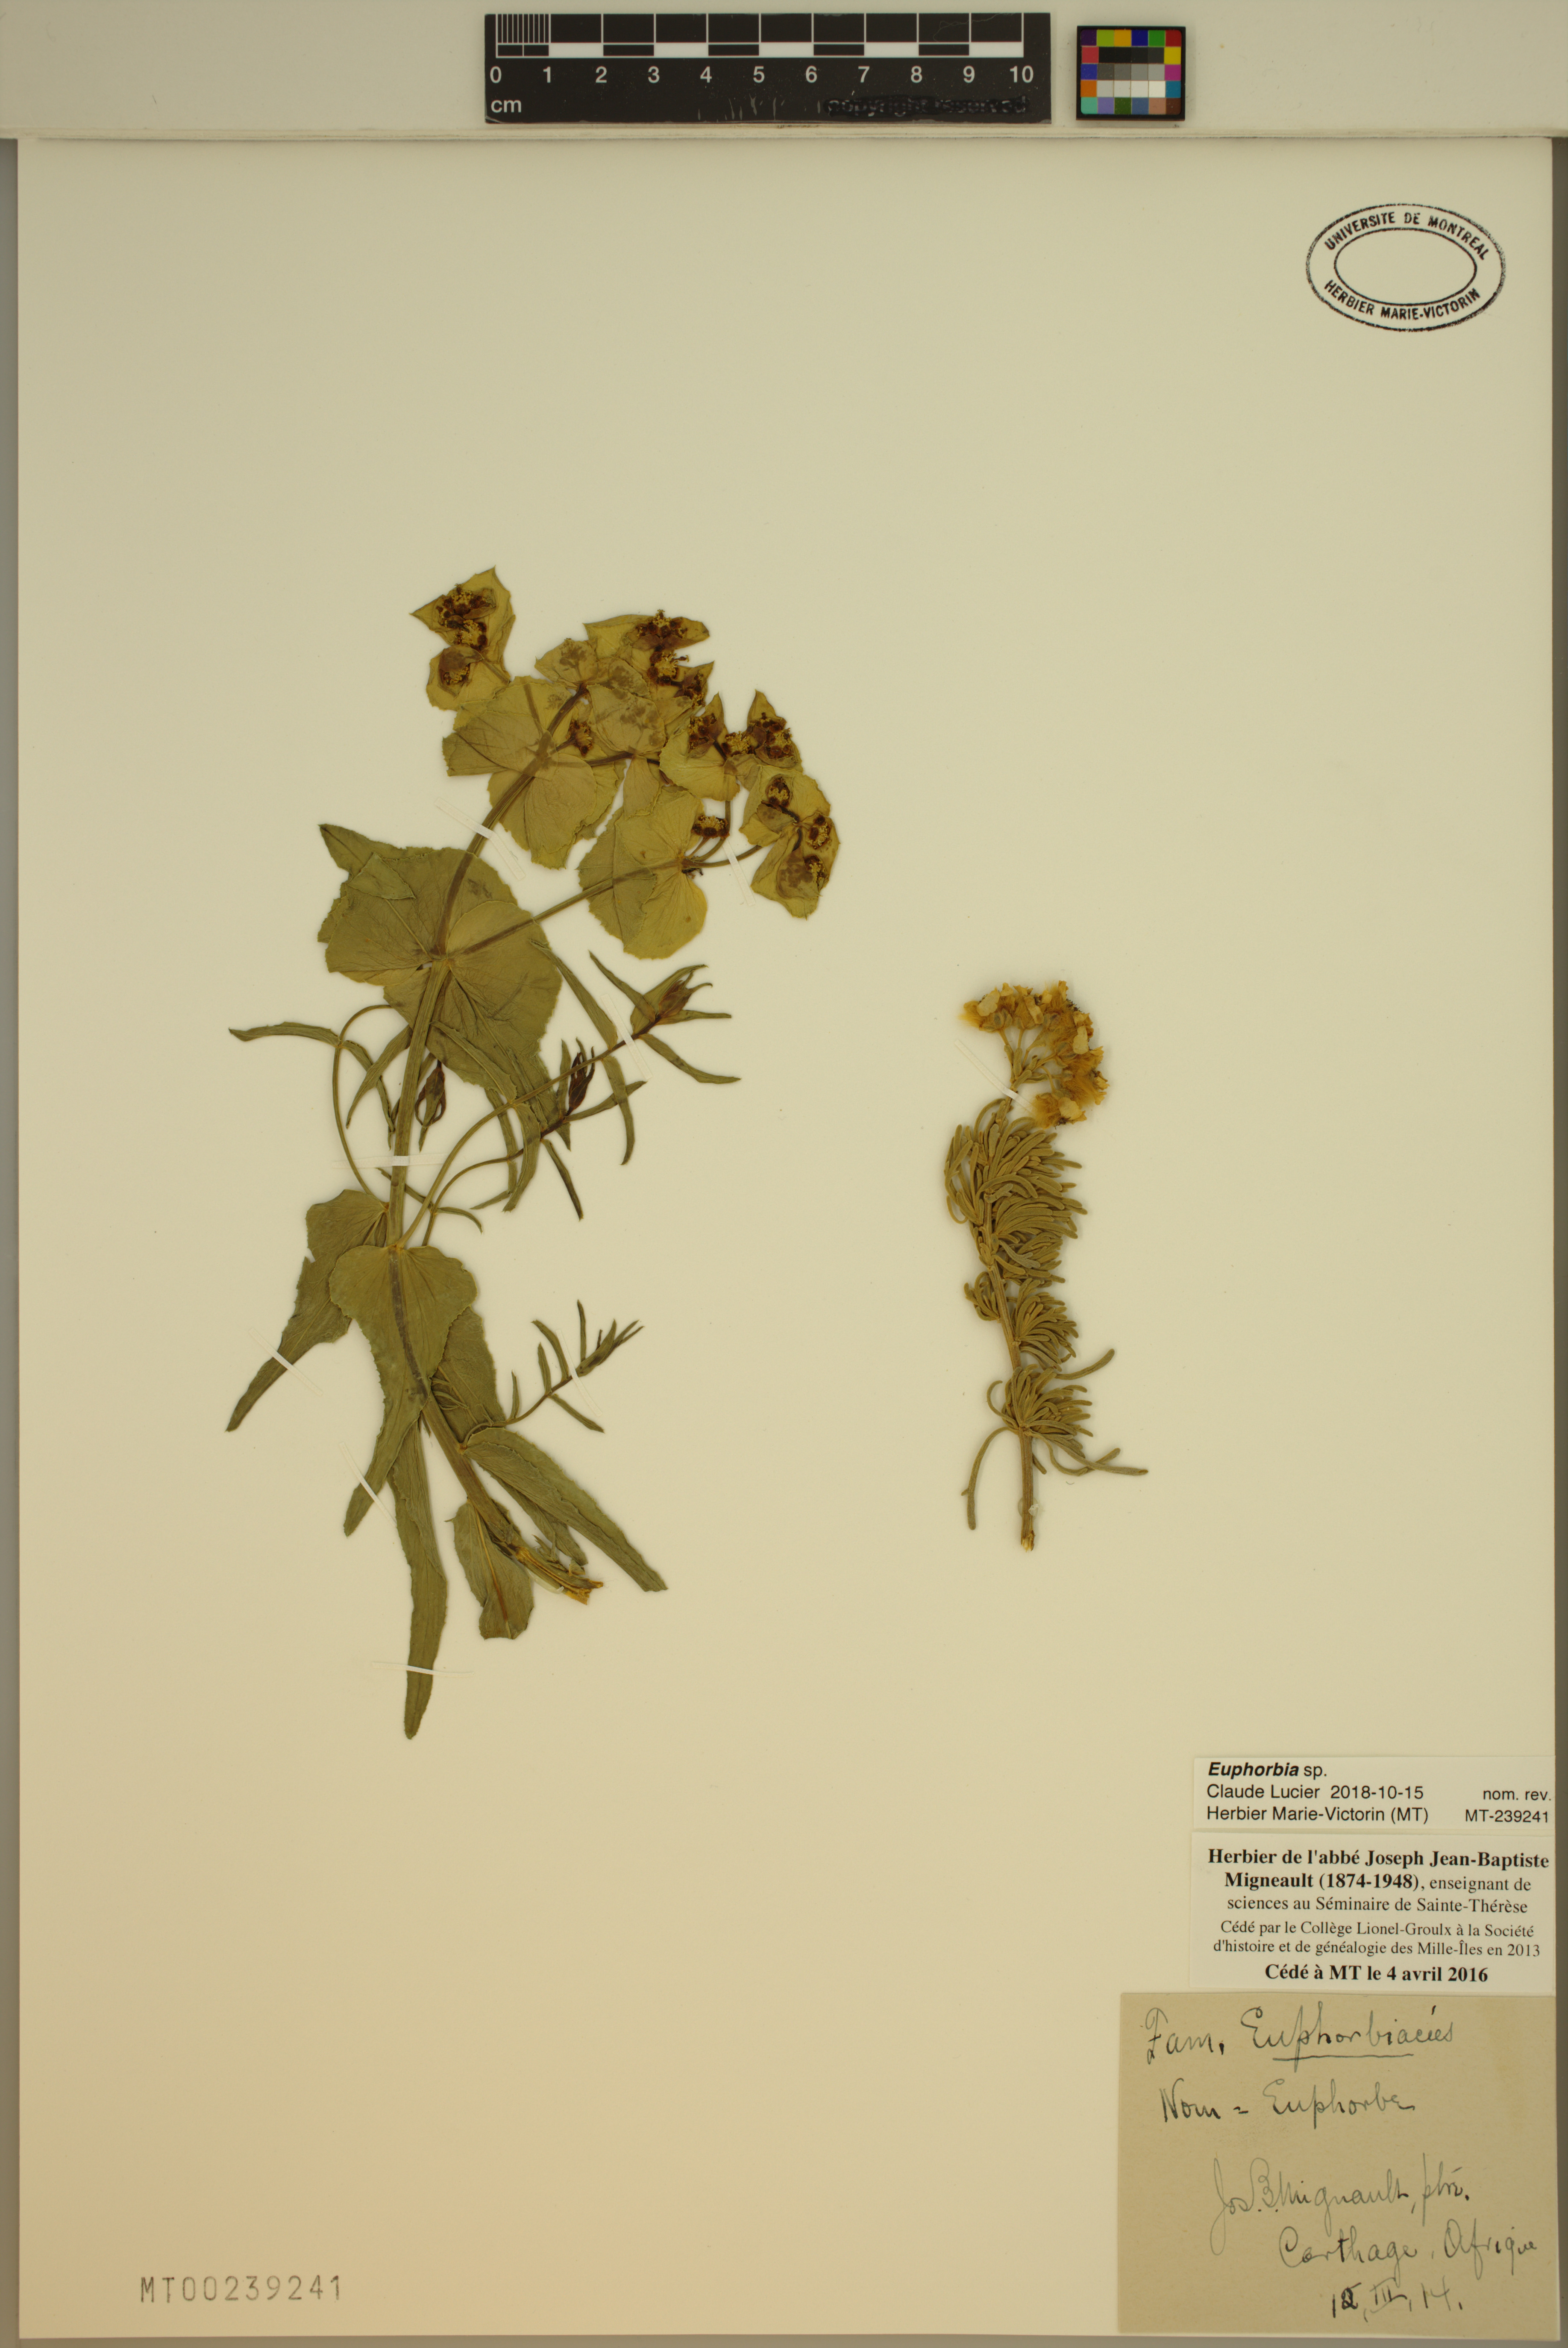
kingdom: Plantae
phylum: Tracheophyta
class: Magnoliopsida
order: Malpighiales
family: Euphorbiaceae
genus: Euphorbia
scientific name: Euphorbia
